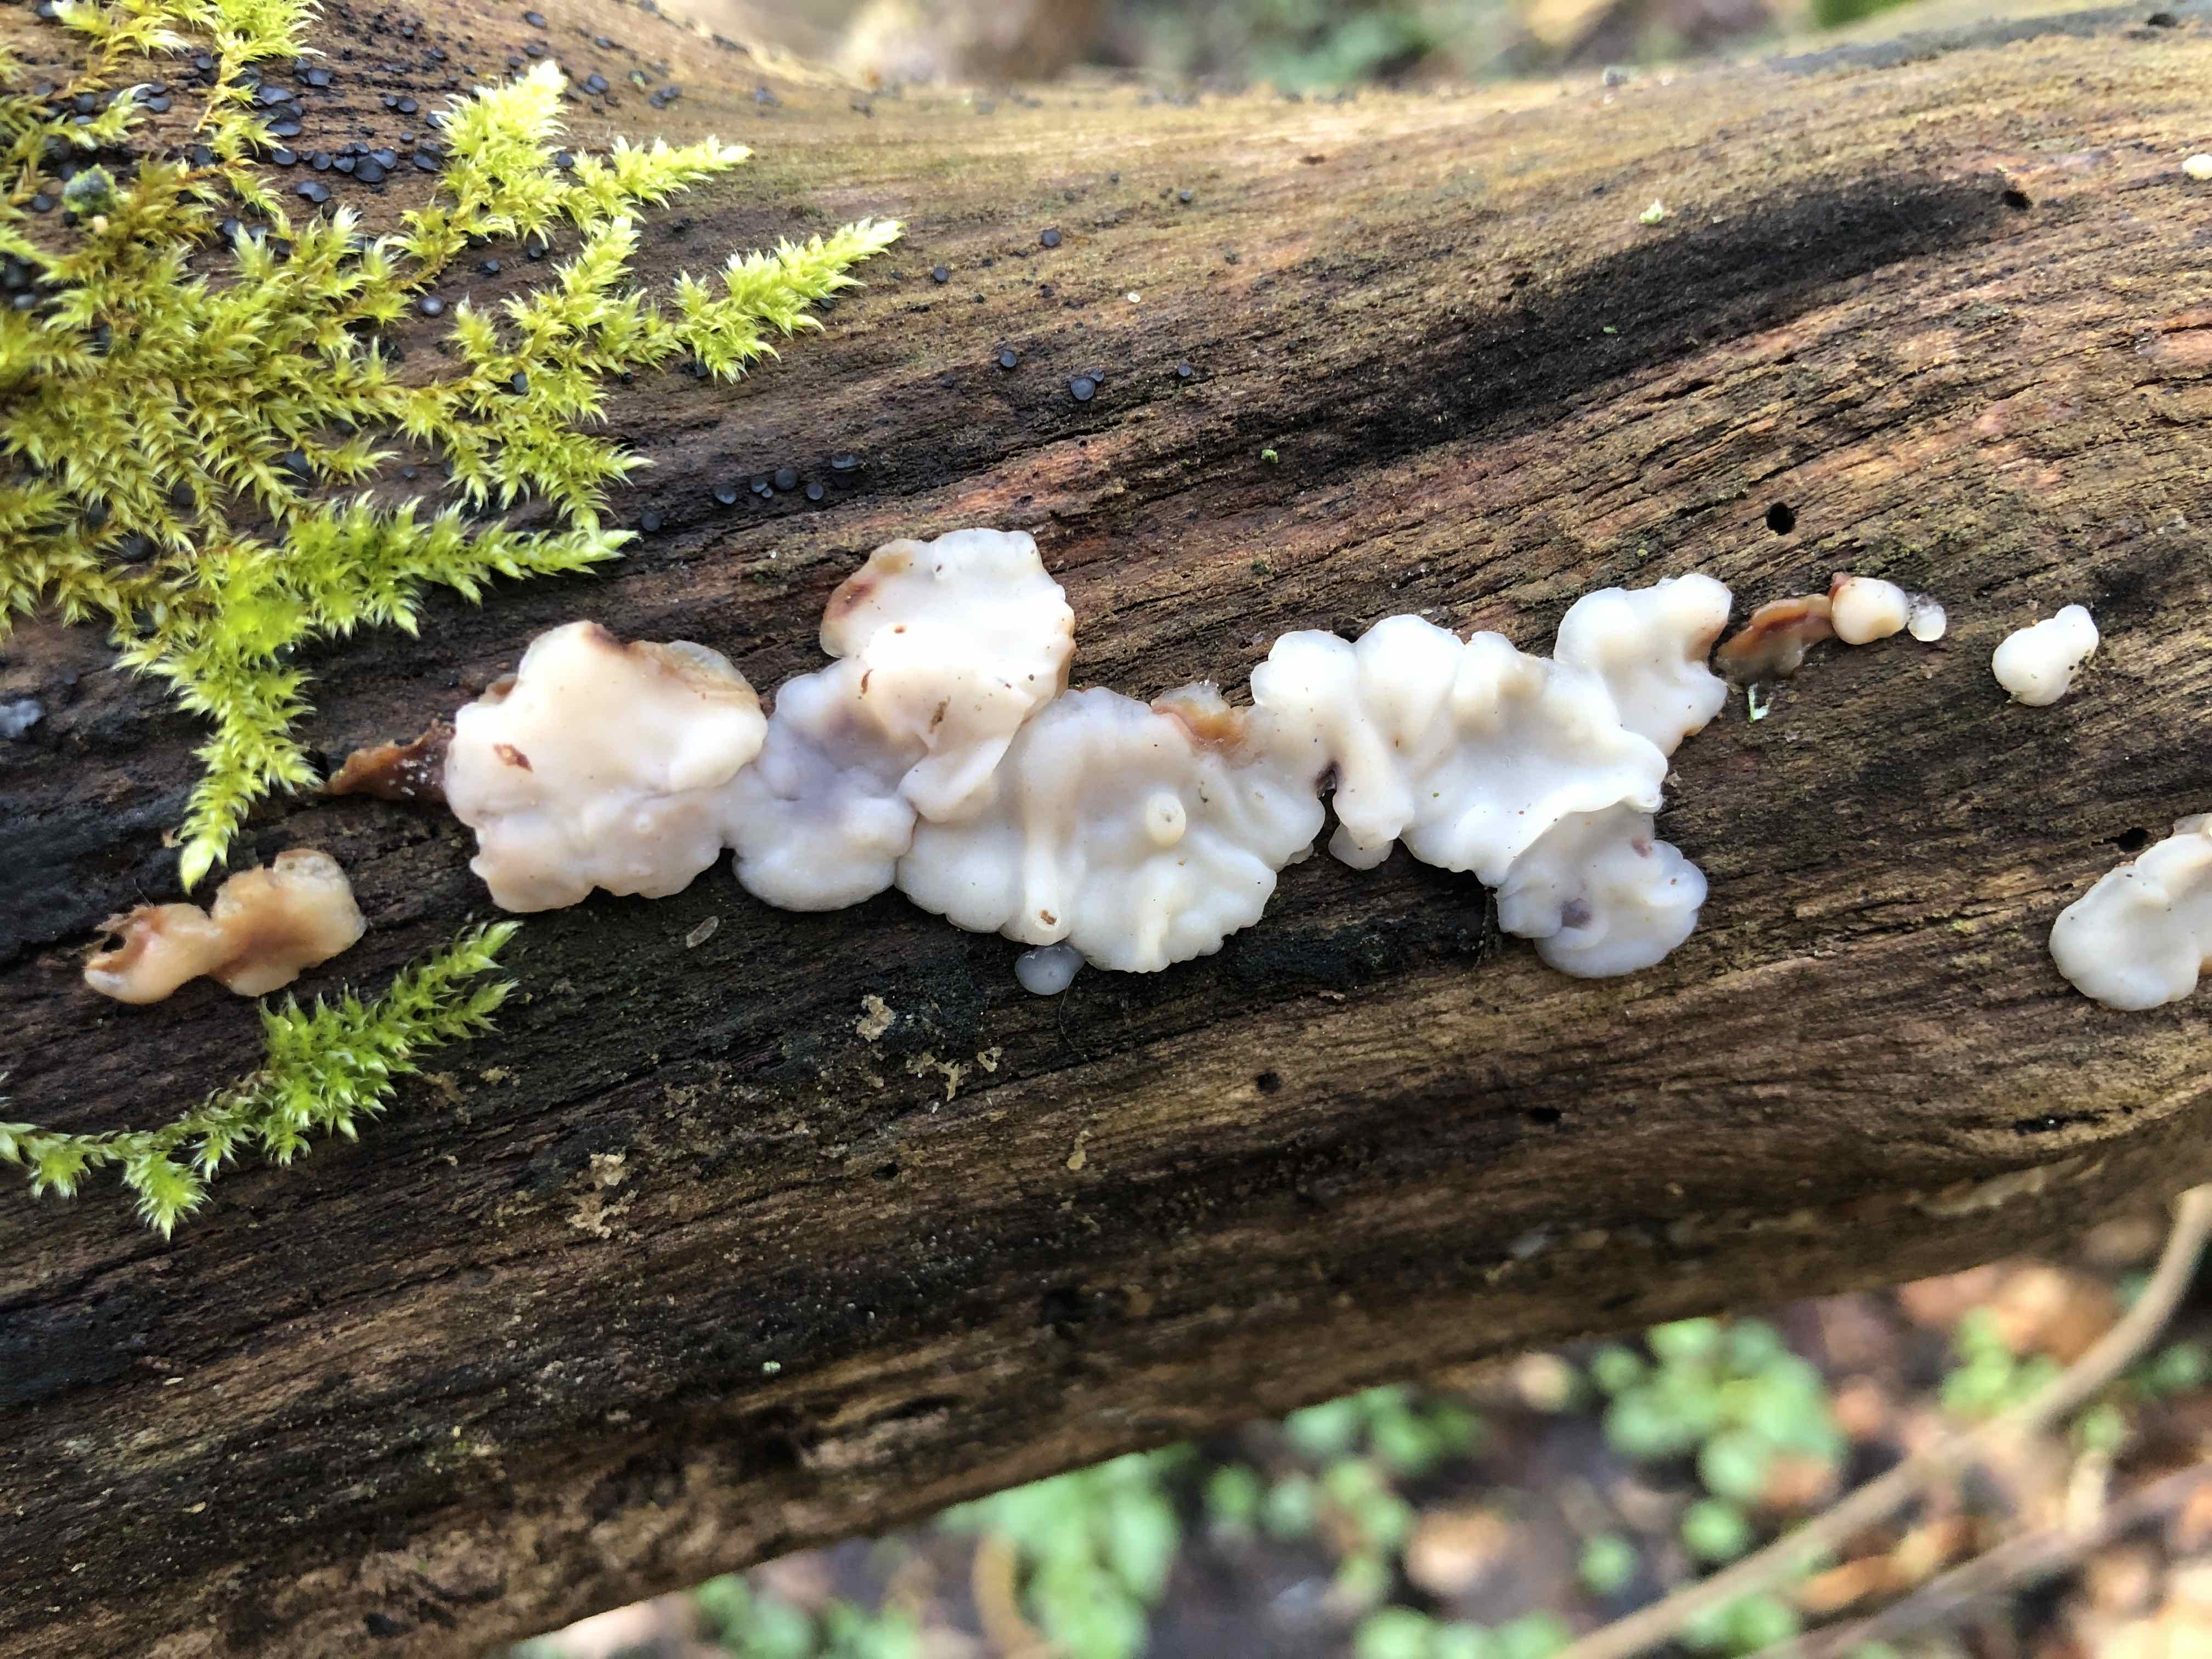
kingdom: Fungi
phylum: Basidiomycota
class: Agaricomycetes
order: Auriculariales
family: Auriculariaceae
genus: Exidia
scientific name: Exidia thuretiana
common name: hvidlig bævretop
